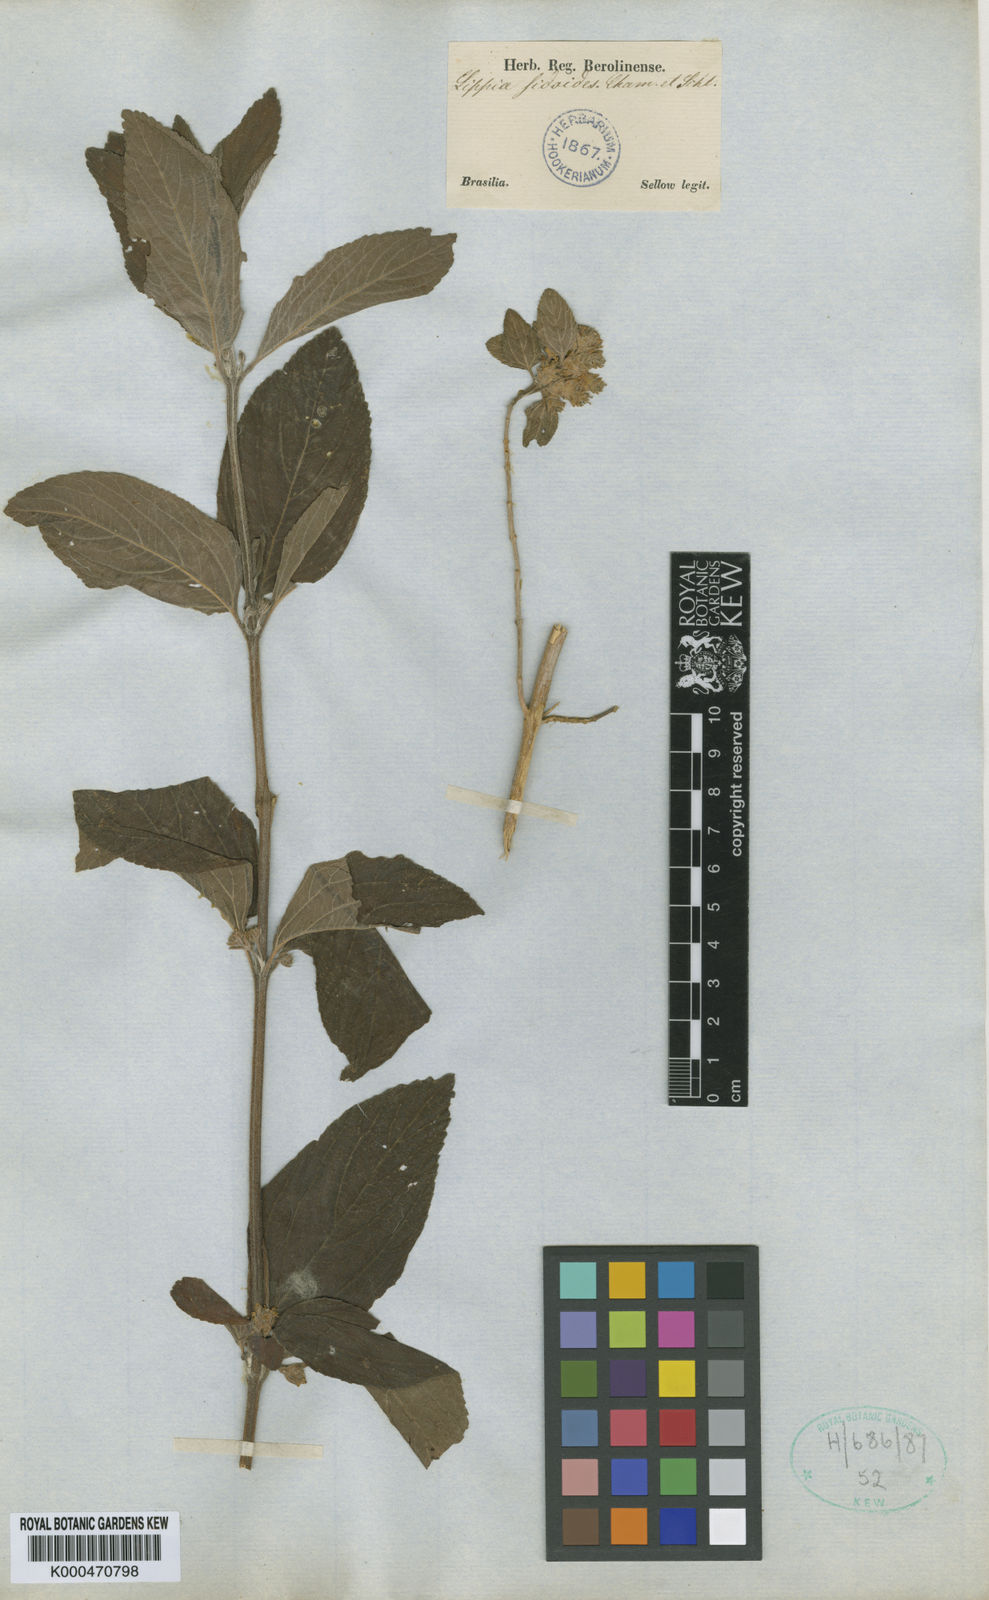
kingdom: Plantae
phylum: Tracheophyta
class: Magnoliopsida
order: Lamiales
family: Verbenaceae
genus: Lippia
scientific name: Lippia origanoides
